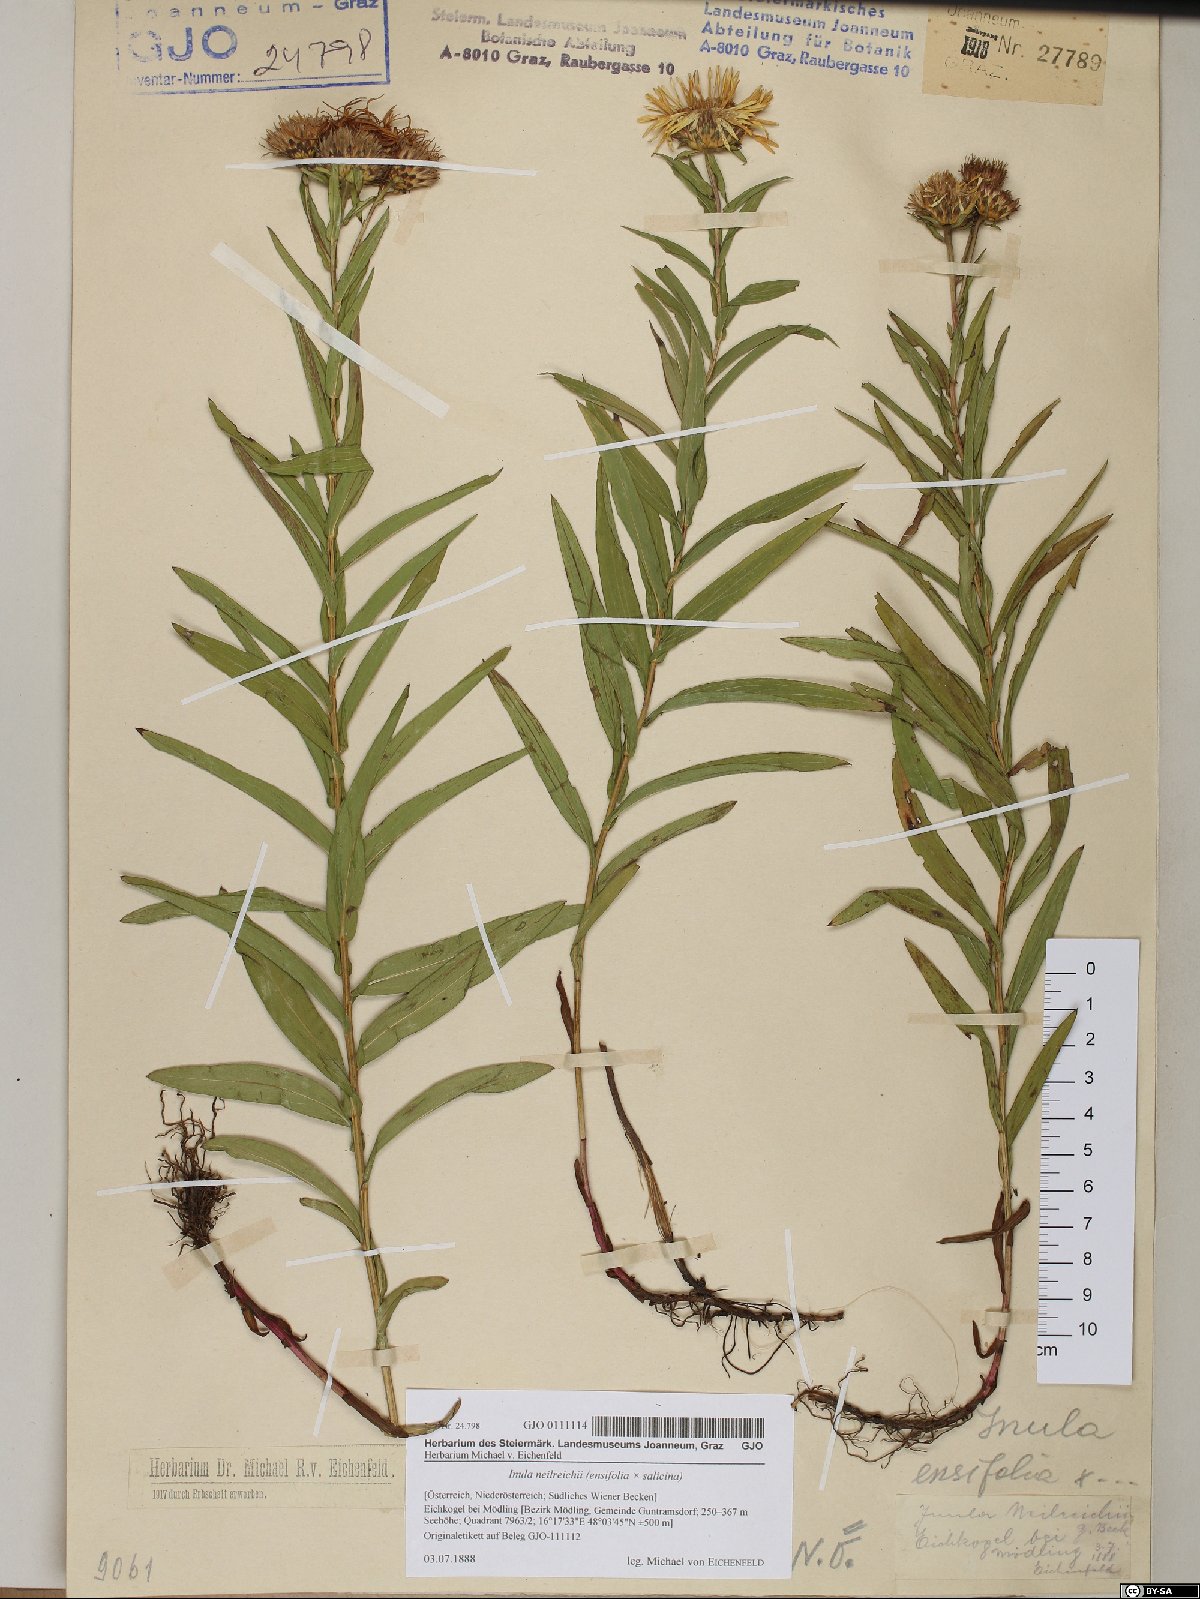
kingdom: Plantae
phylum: Tracheophyta
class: Magnoliopsida
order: Asterales
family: Asteraceae
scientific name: Asteraceae
